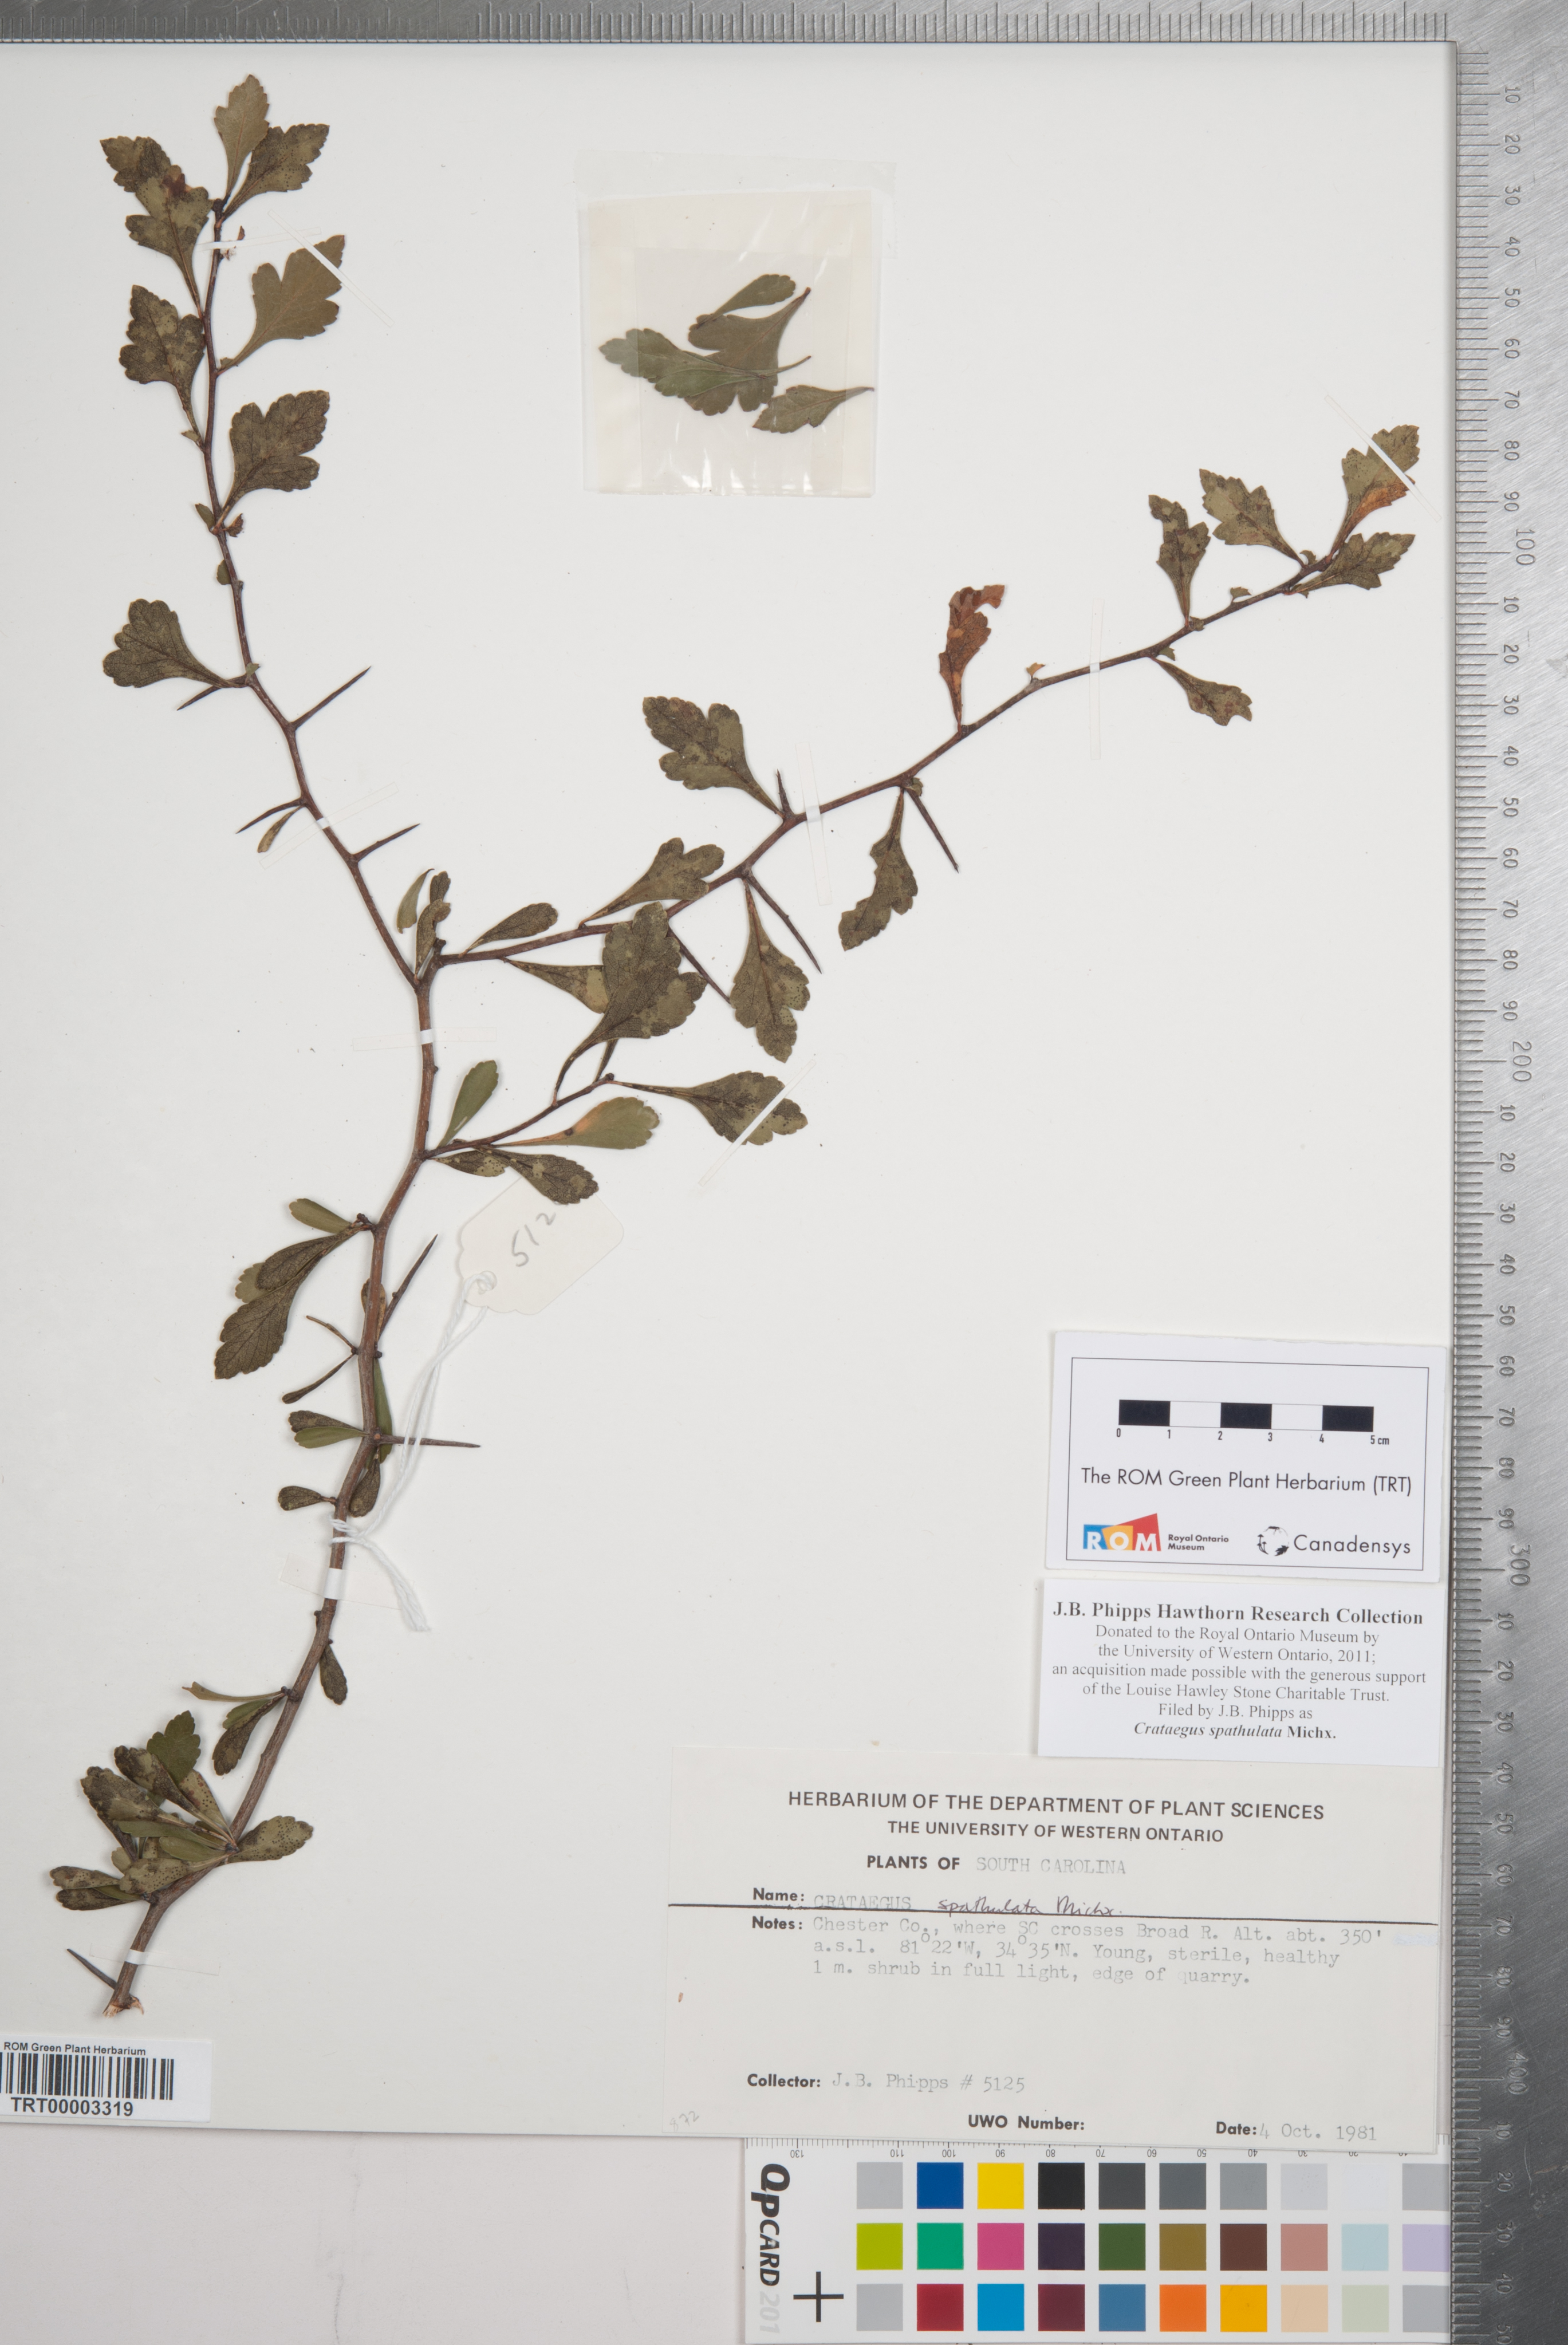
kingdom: Plantae
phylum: Tracheophyta
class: Magnoliopsida
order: Rosales
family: Rosaceae
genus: Crataegus
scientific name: Crataegus spathulata
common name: Littlehip hawthorn
